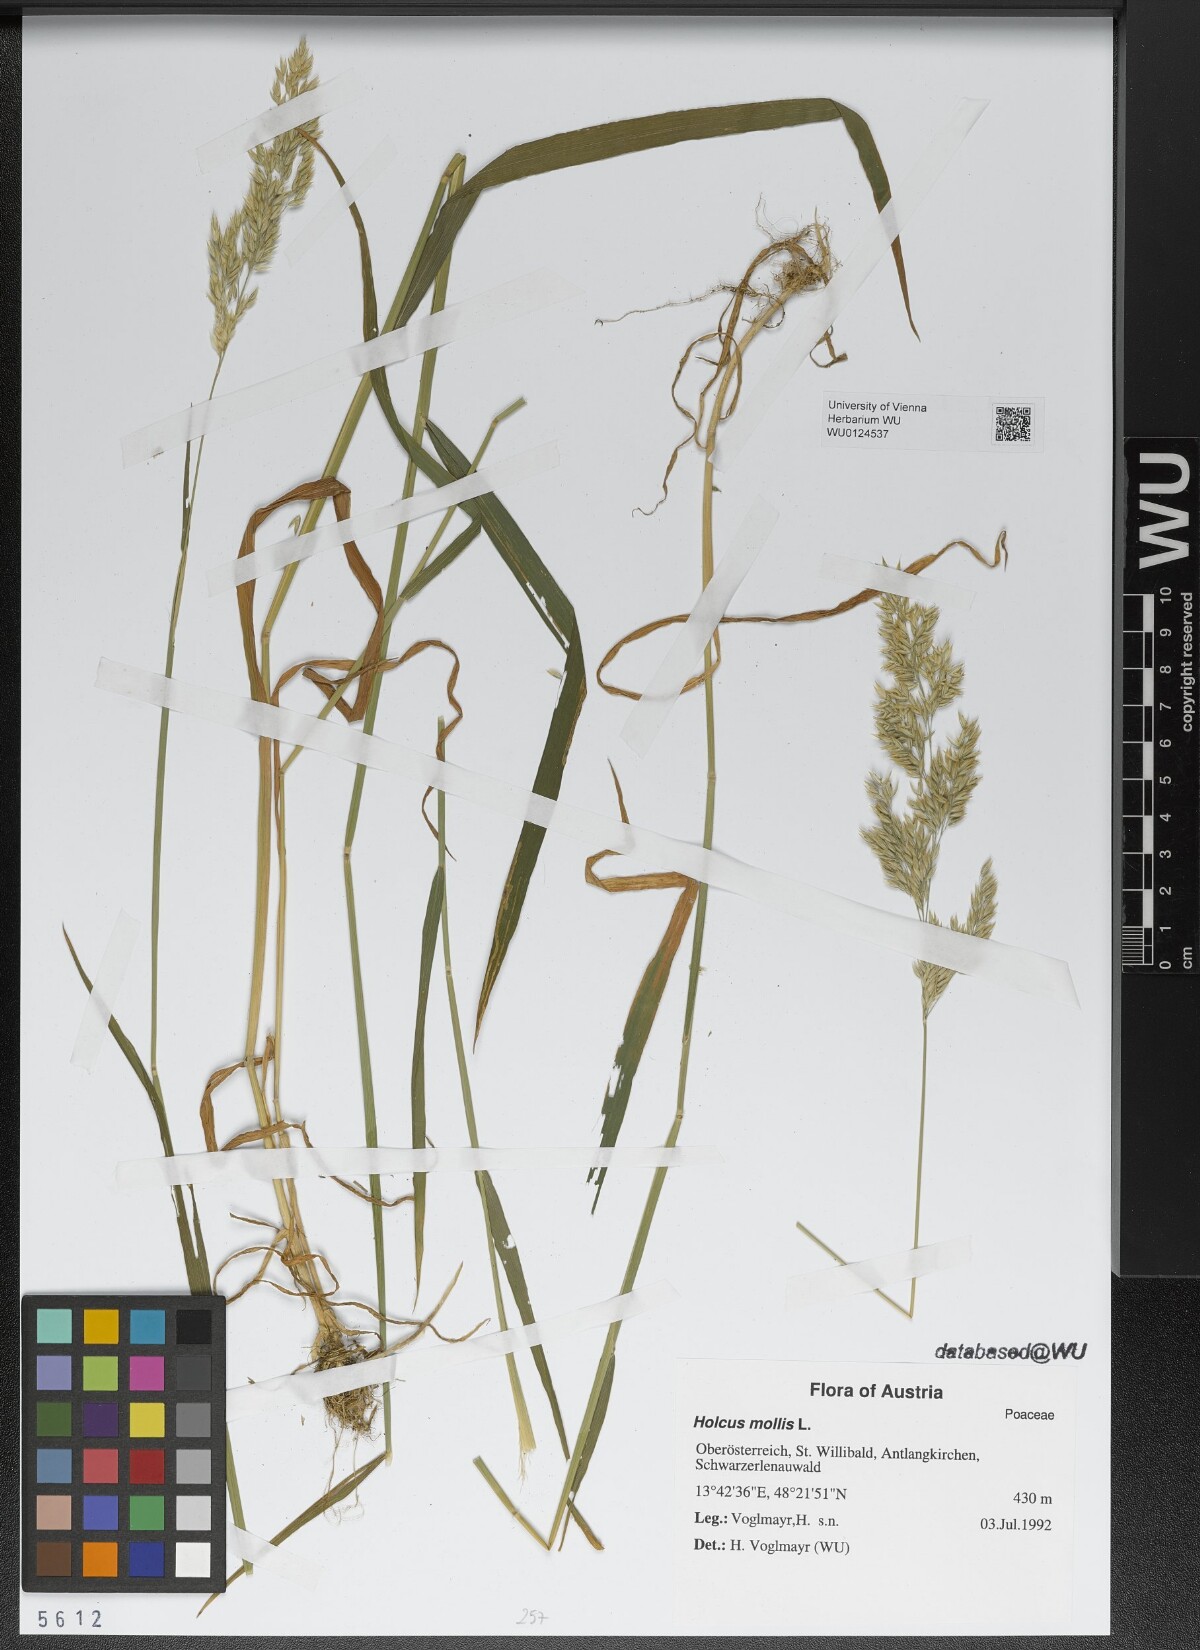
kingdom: Plantae
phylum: Tracheophyta
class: Liliopsida
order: Poales
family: Poaceae
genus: Holcus
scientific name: Holcus mollis
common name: Creeping velvetgrass
